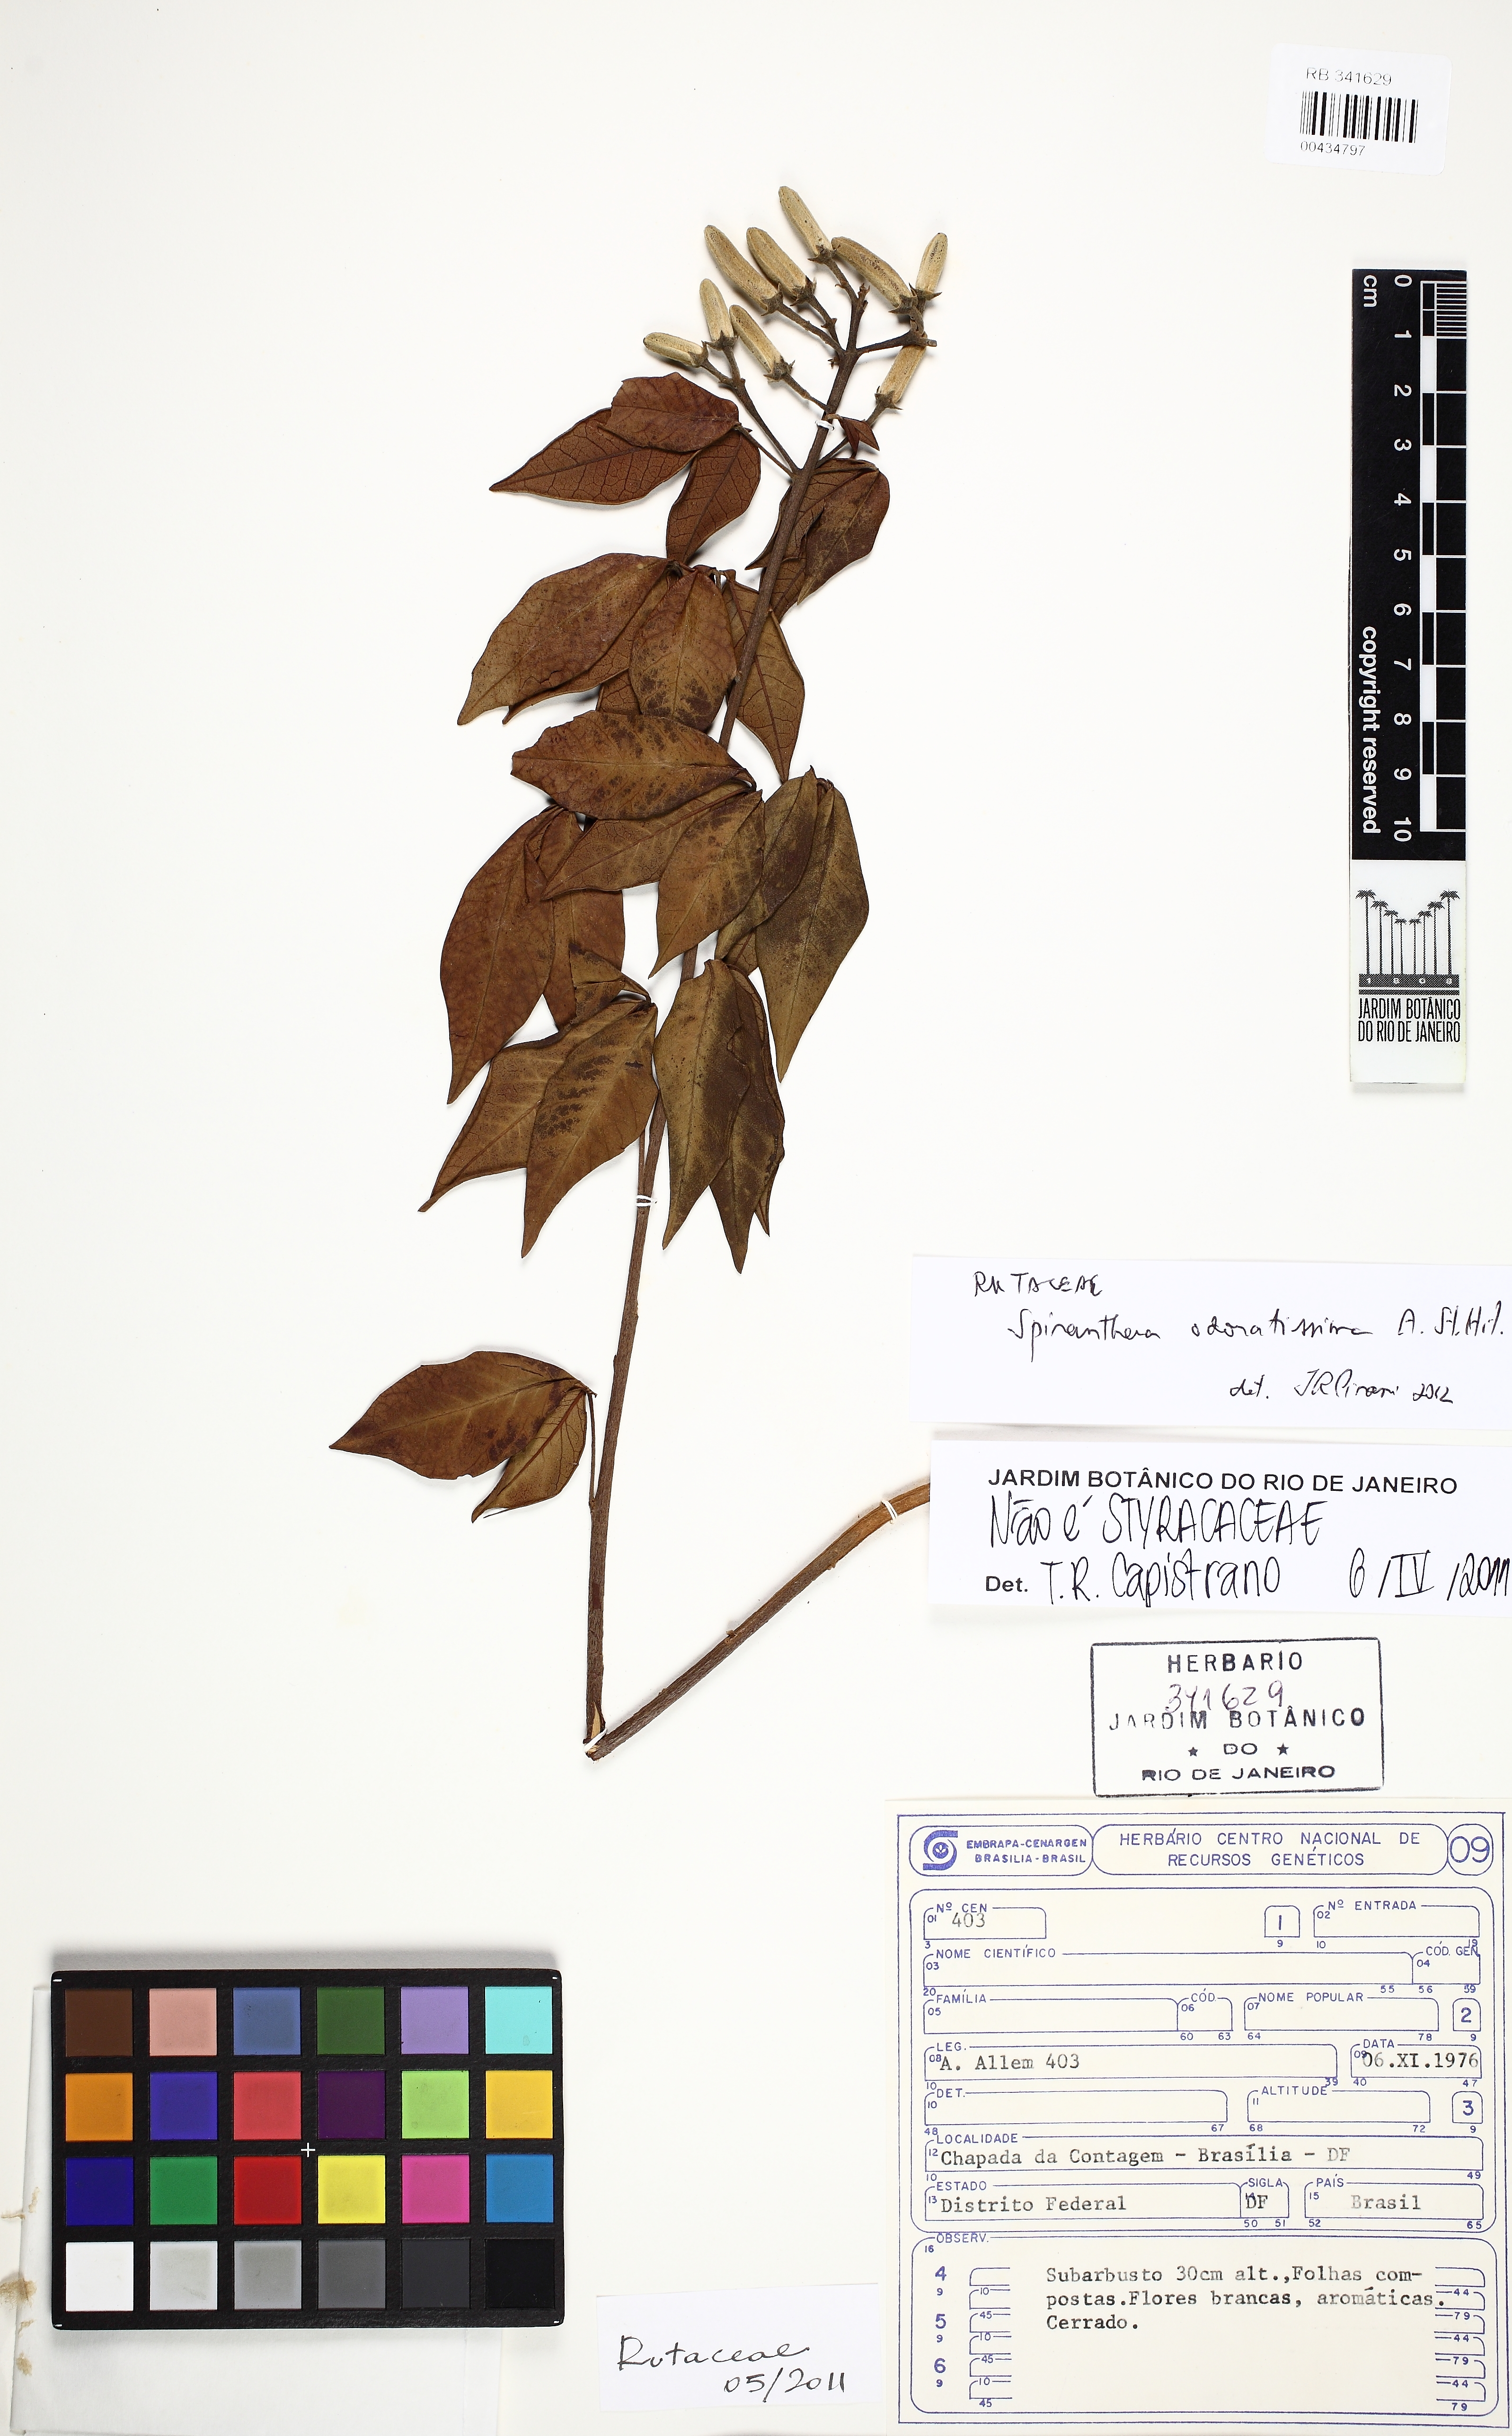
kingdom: Plantae
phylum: Tracheophyta
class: Magnoliopsida
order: Sapindales
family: Rutaceae
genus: Spiranthera
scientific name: Spiranthera odoratissima
